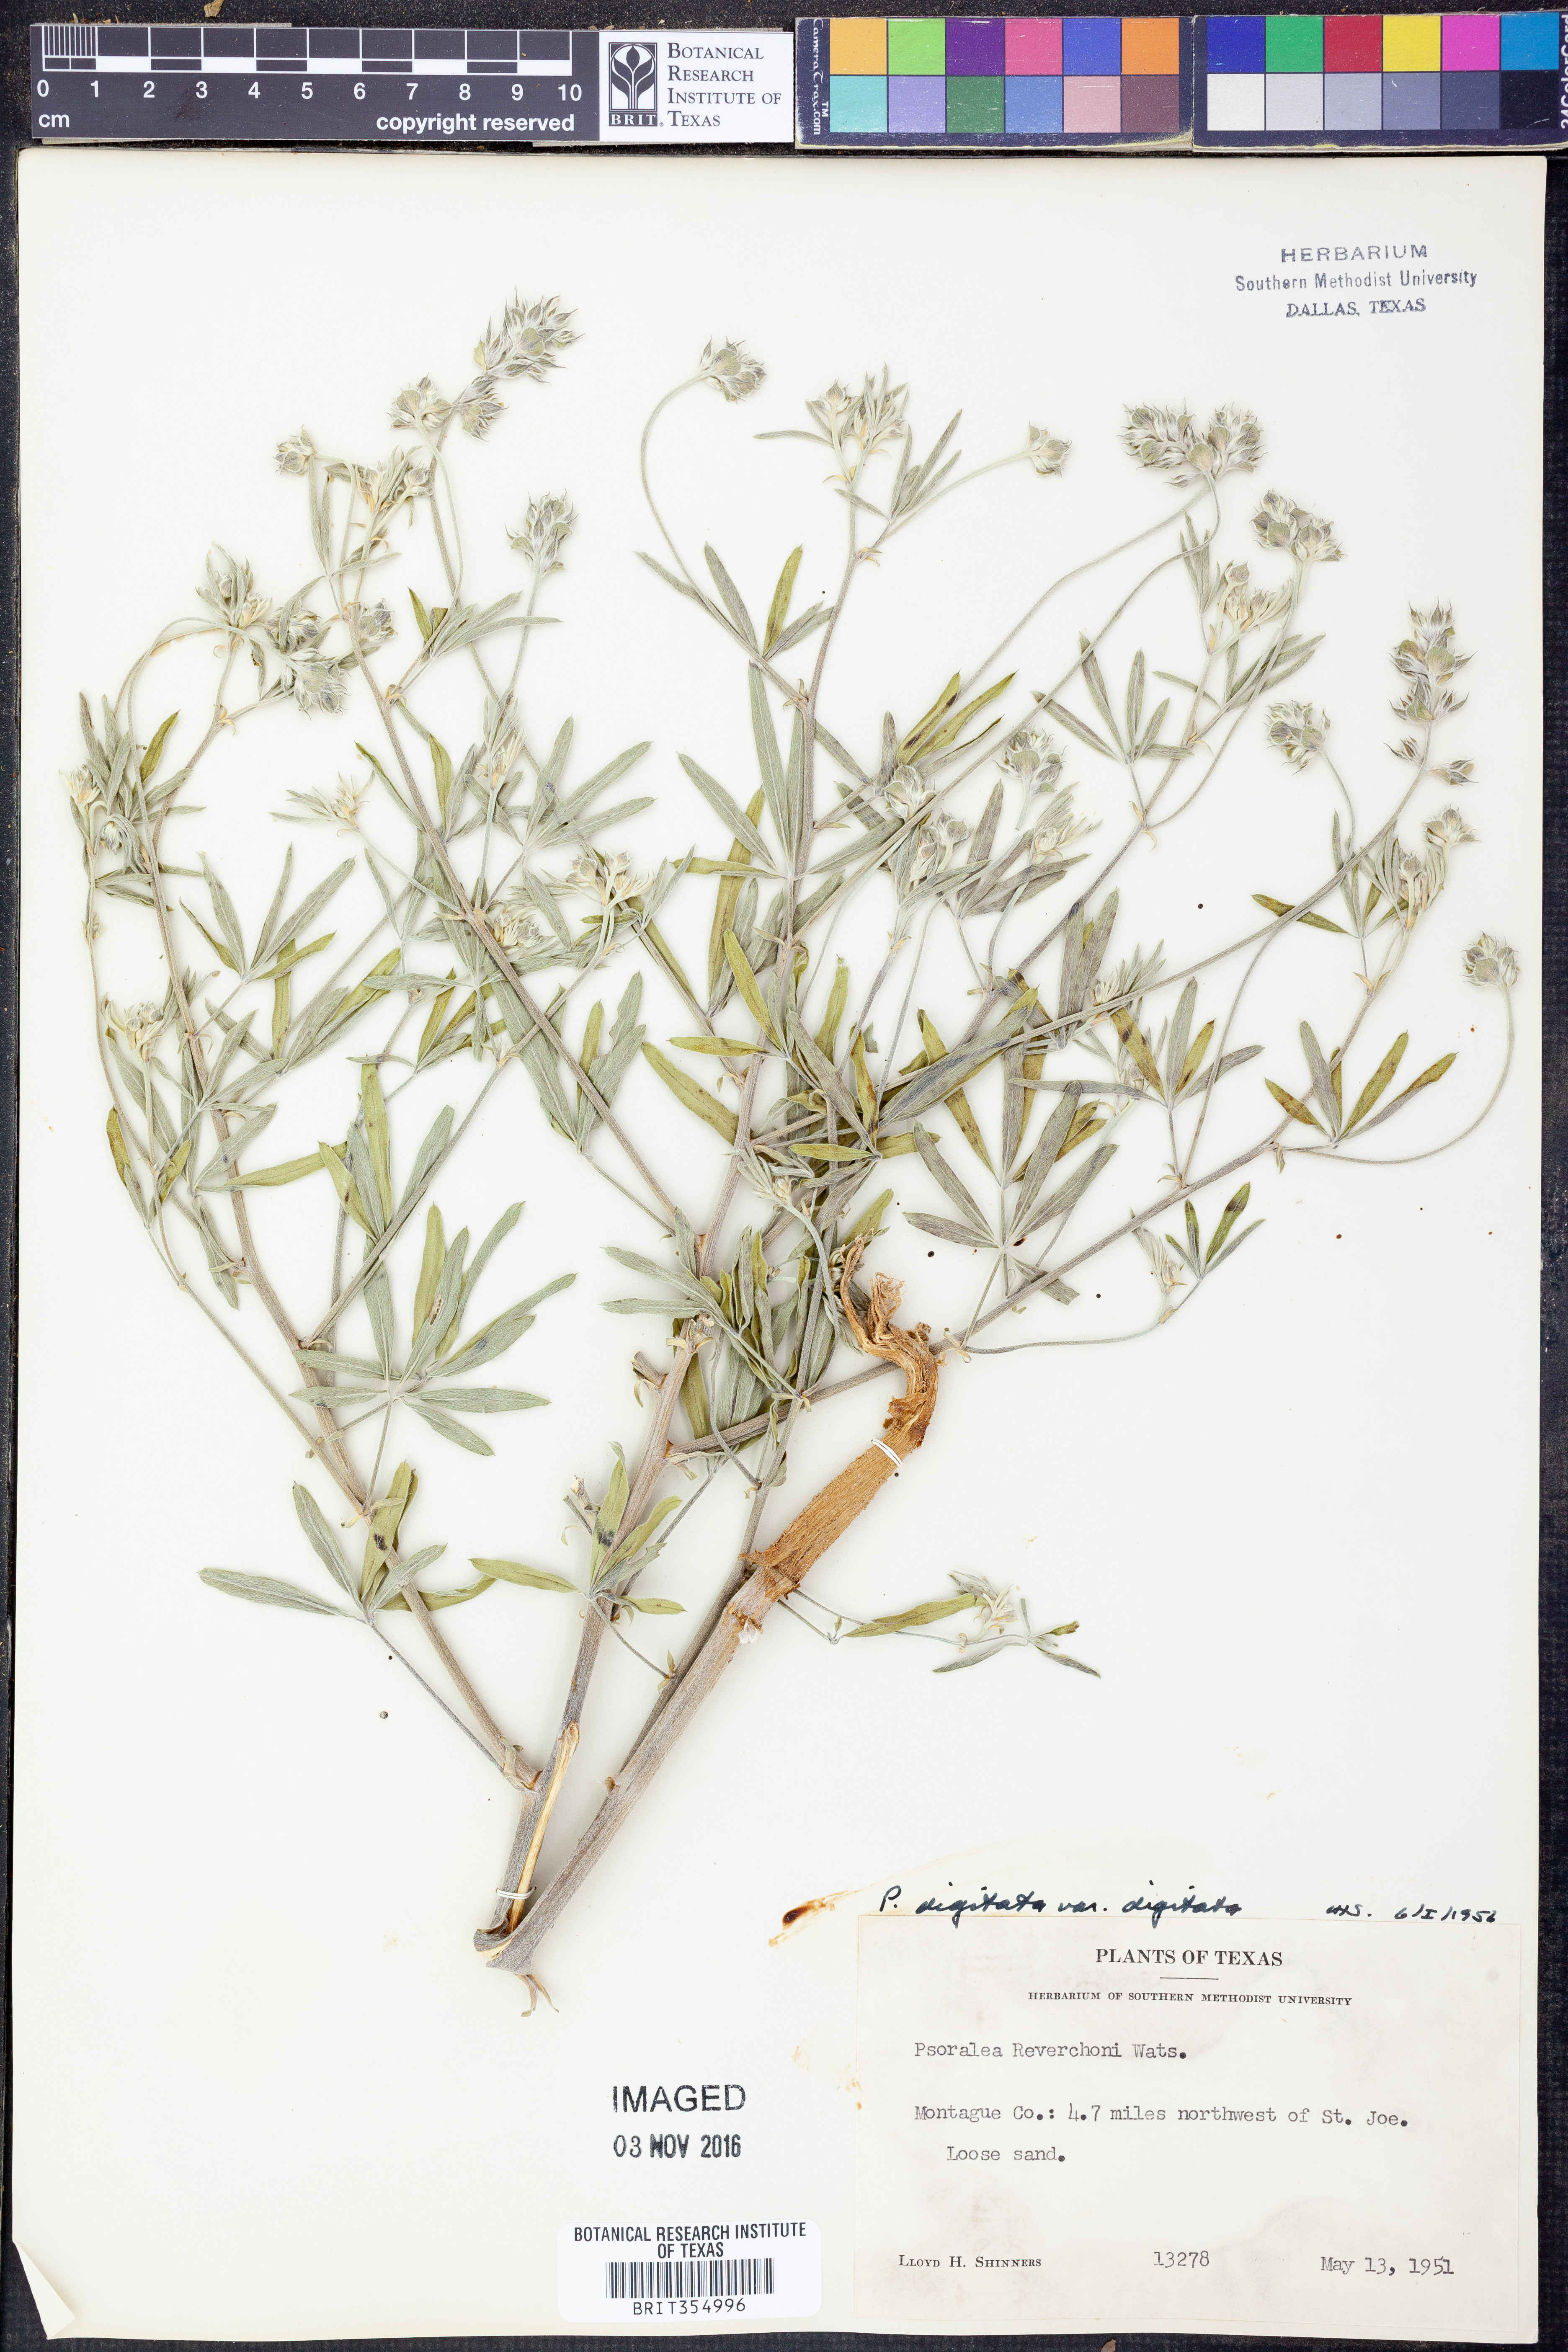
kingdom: Plantae
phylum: Tracheophyta
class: Magnoliopsida
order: Fabales
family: Fabaceae
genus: Pediomelum
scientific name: Pediomelum digitatum
